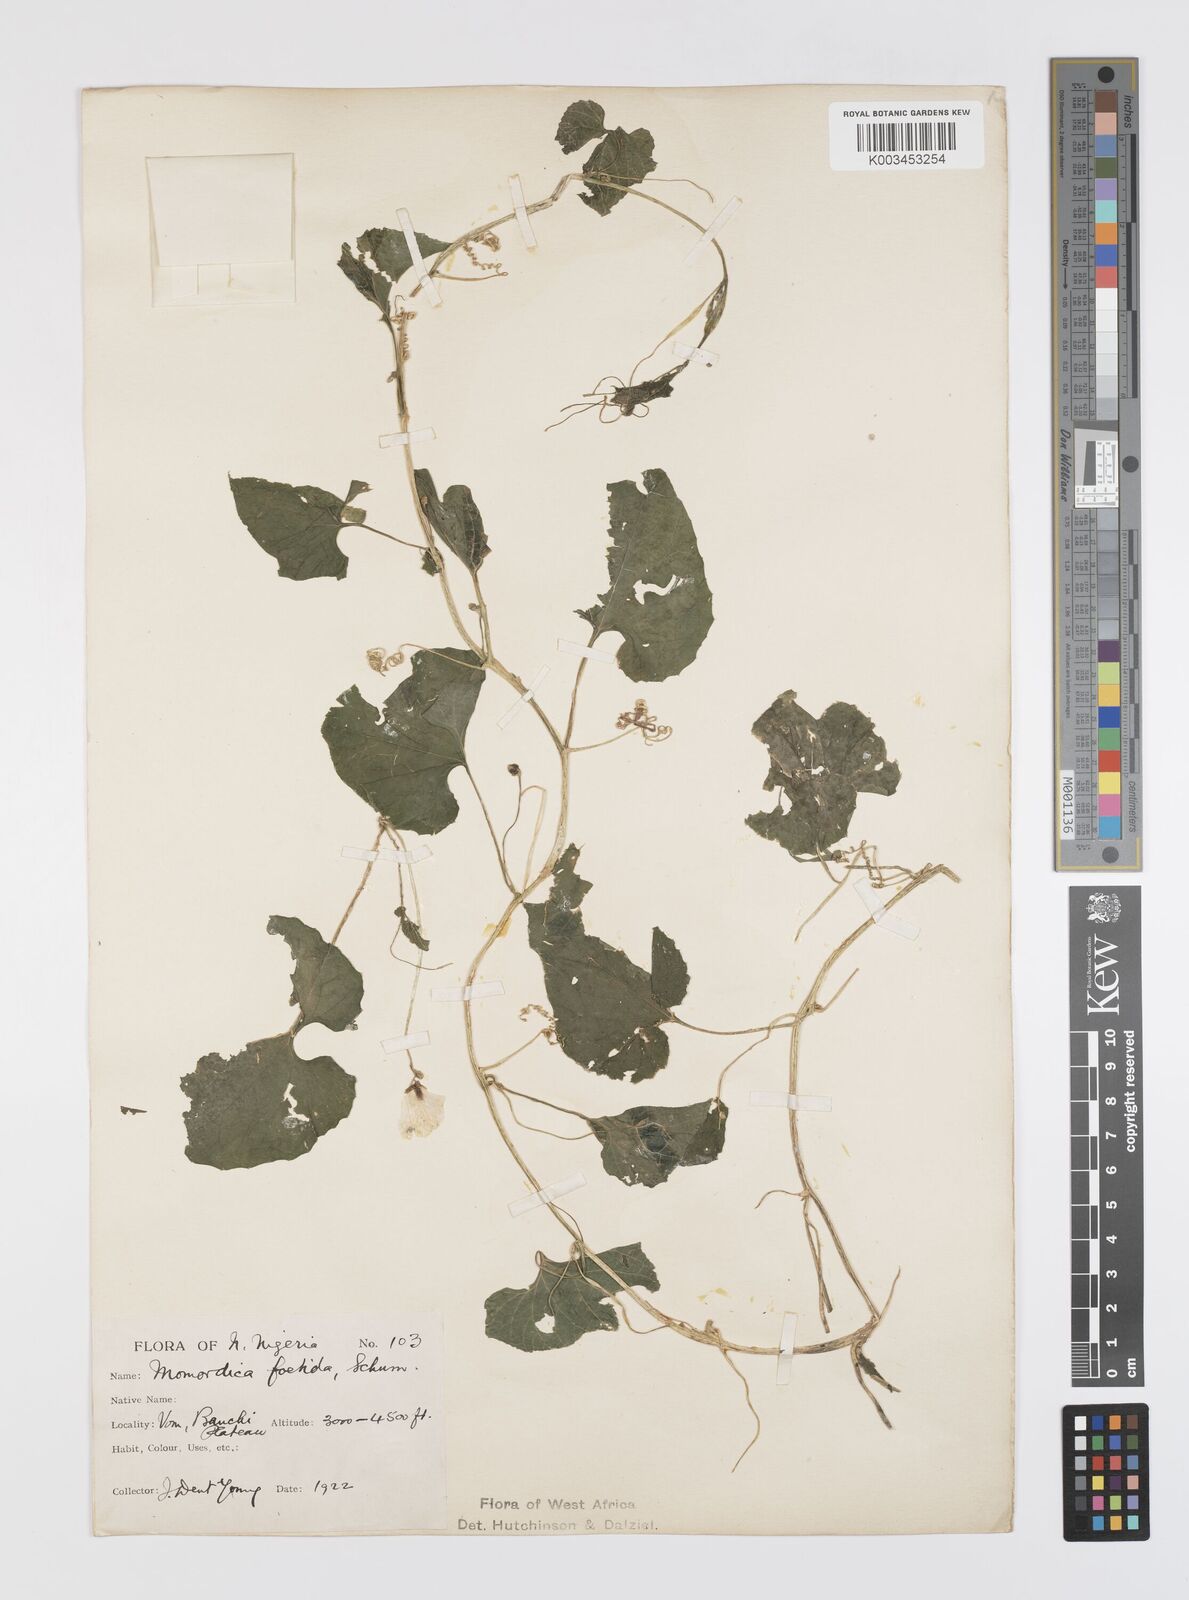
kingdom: Plantae
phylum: Tracheophyta
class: Magnoliopsida
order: Cucurbitales
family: Cucurbitaceae
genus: Momordica
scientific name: Momordica foetida
